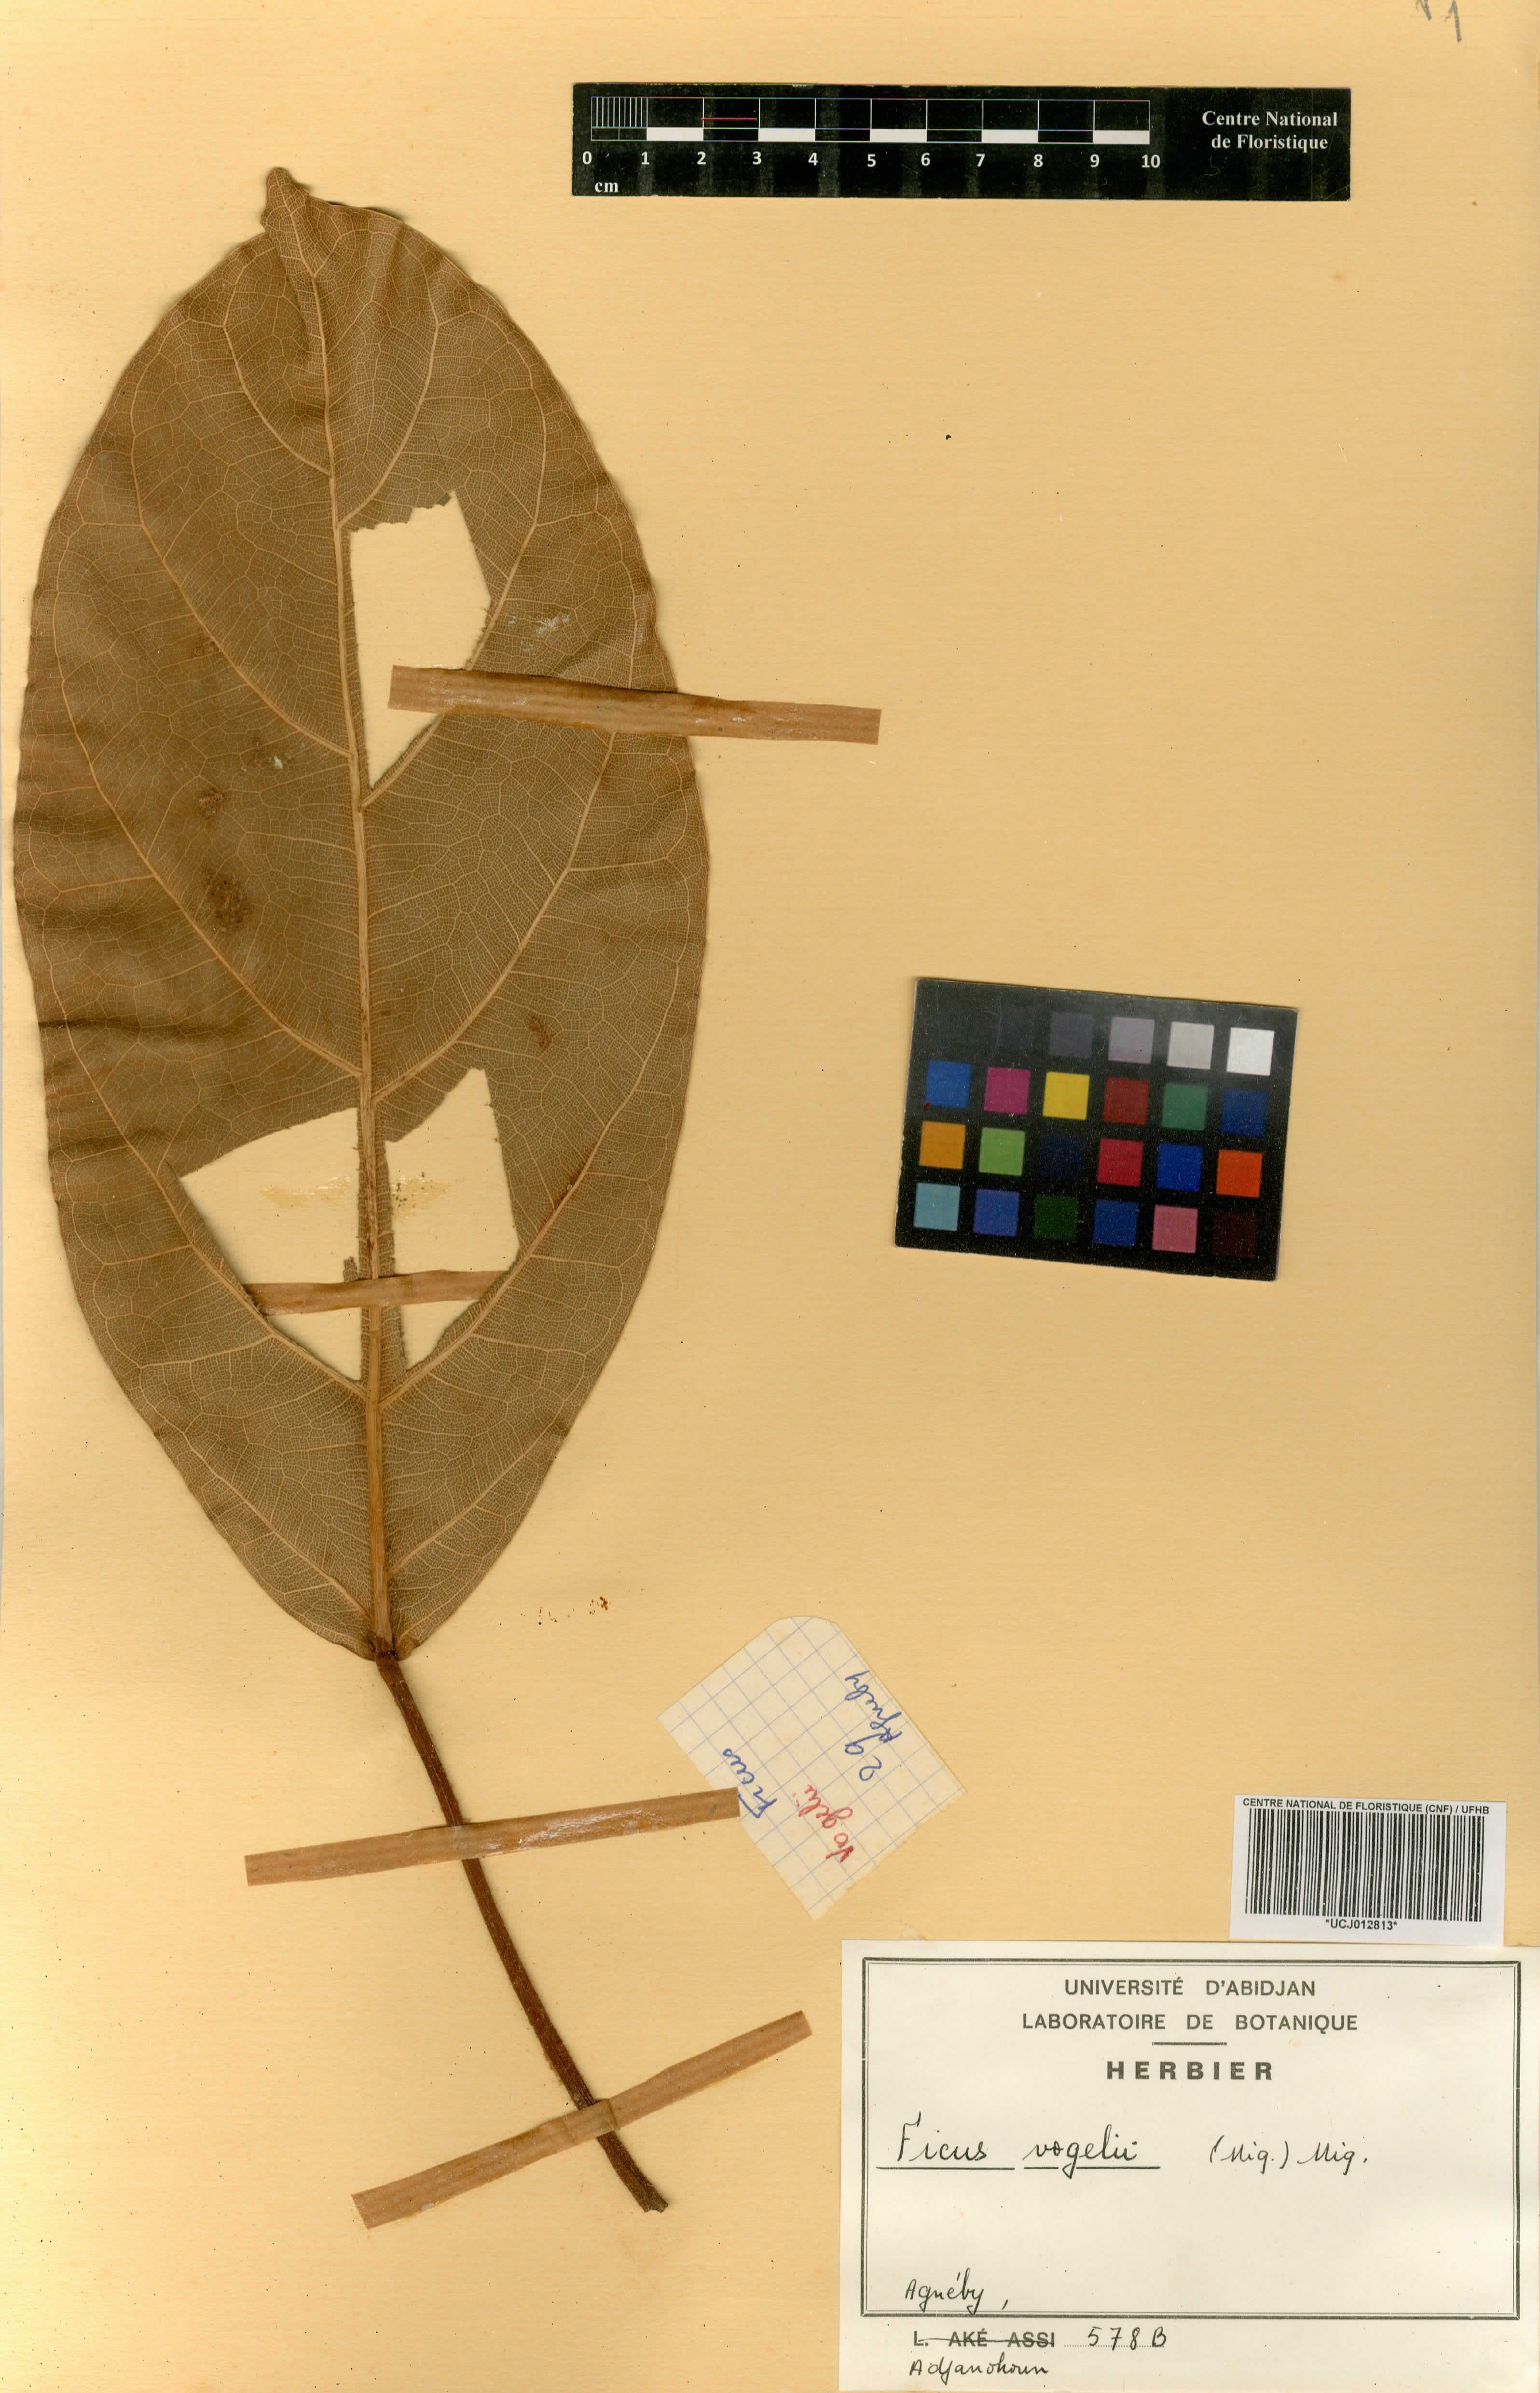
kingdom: Plantae
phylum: Tracheophyta
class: Magnoliopsida
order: Rosales
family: Moraceae
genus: Ficus
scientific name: Ficus lutea
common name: Giant-leaved fig
